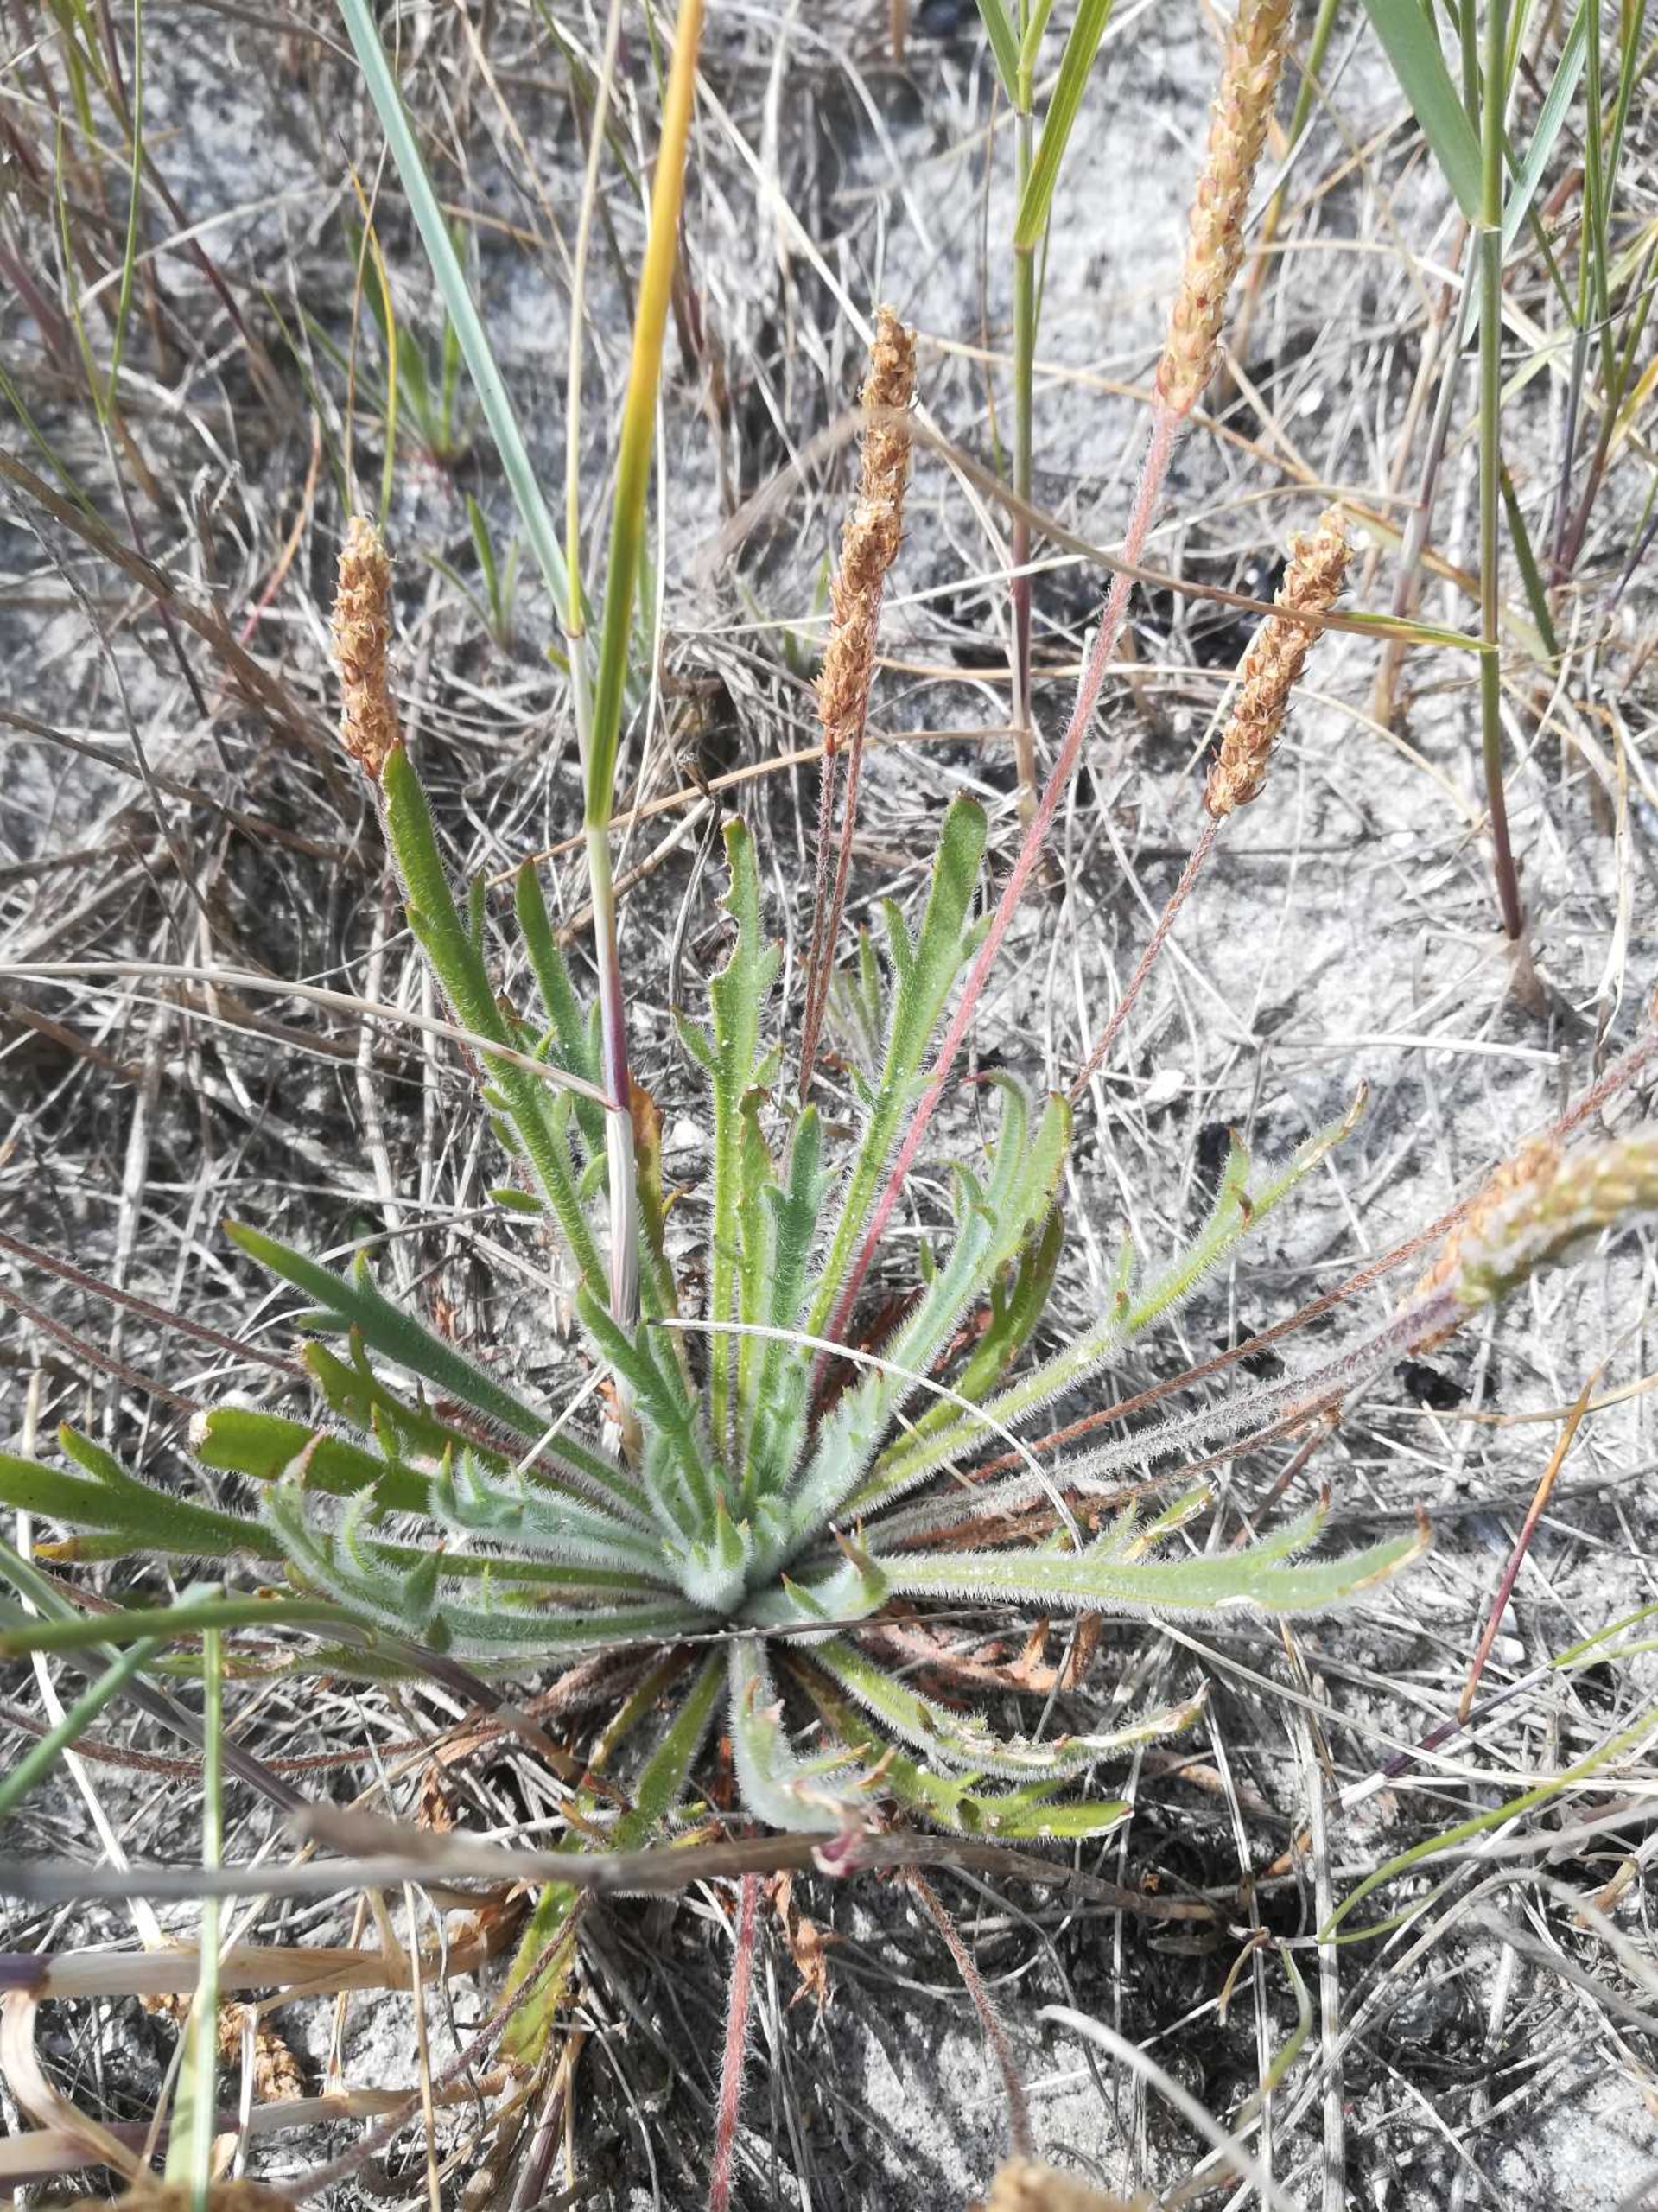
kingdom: Plantae
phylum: Tracheophyta
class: Magnoliopsida
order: Lamiales
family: Plantaginaceae
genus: Plantago
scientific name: Plantago coronopus
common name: Fliget vejbred
